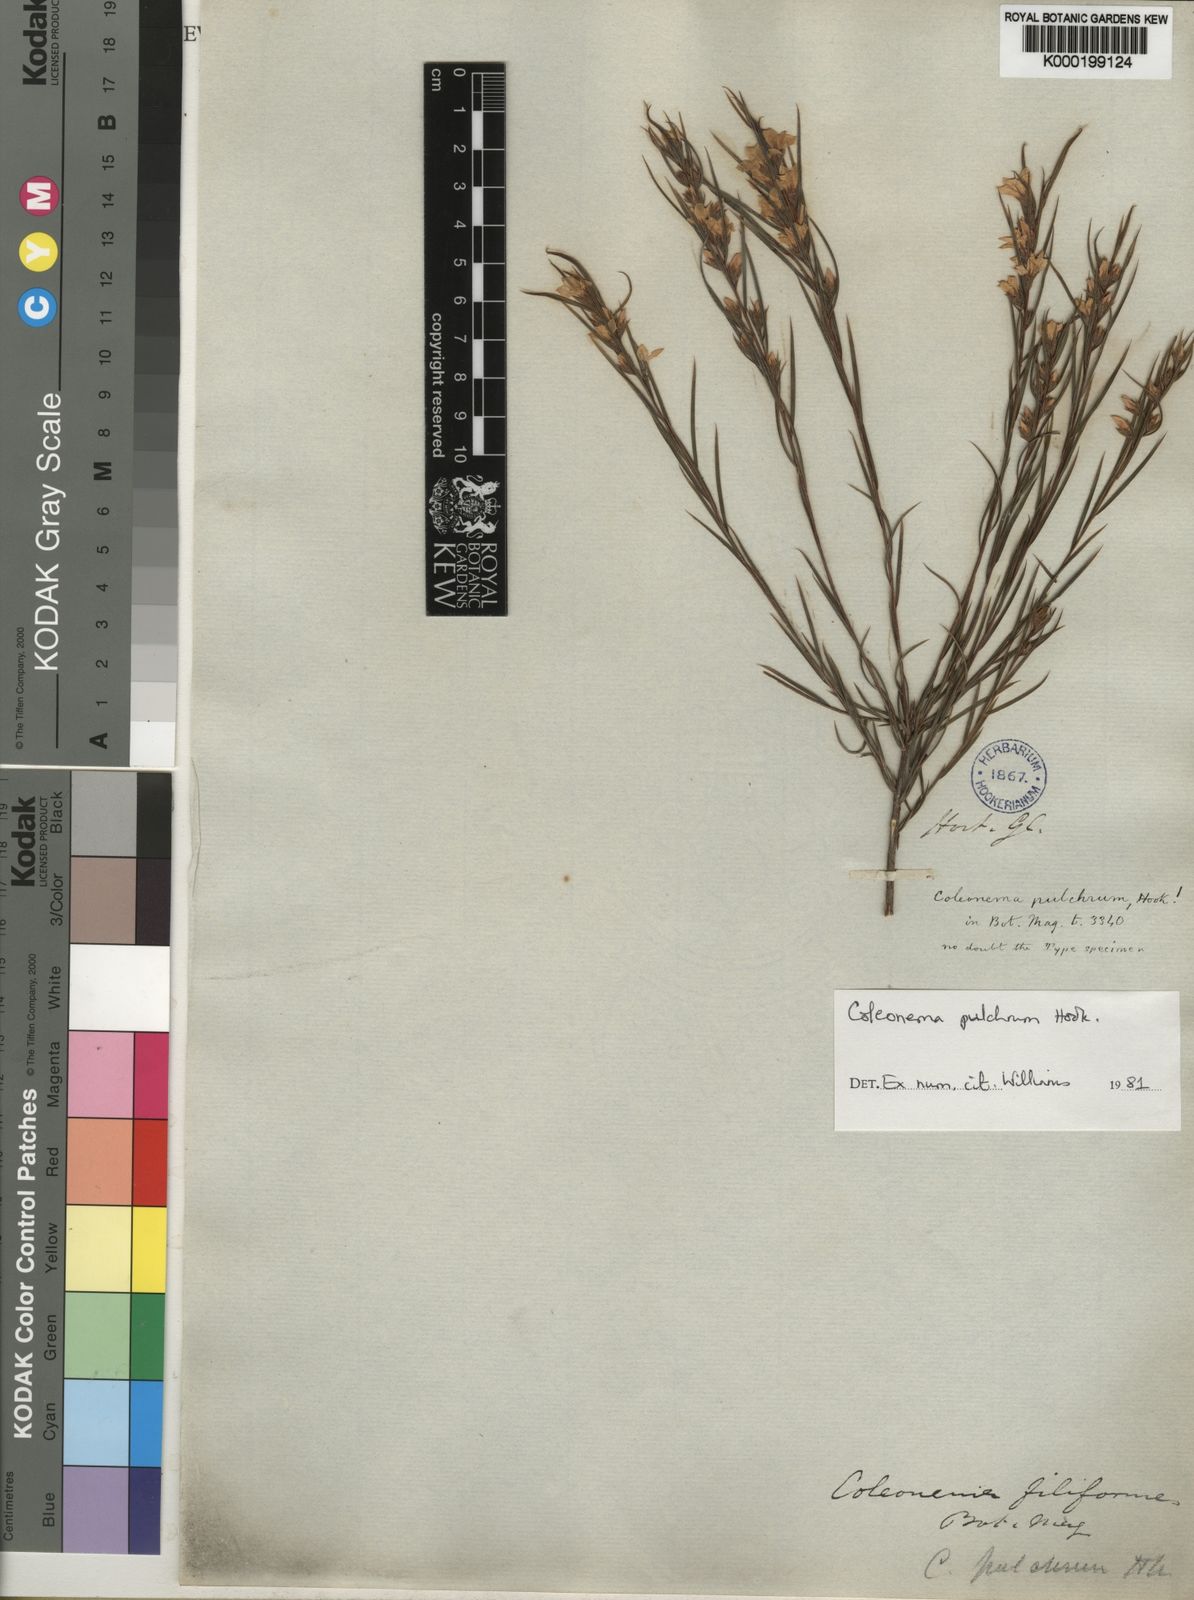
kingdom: Plantae
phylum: Tracheophyta
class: Magnoliopsida
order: Sapindales
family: Rutaceae
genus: Coleonema
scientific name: Coleonema pulchrum
